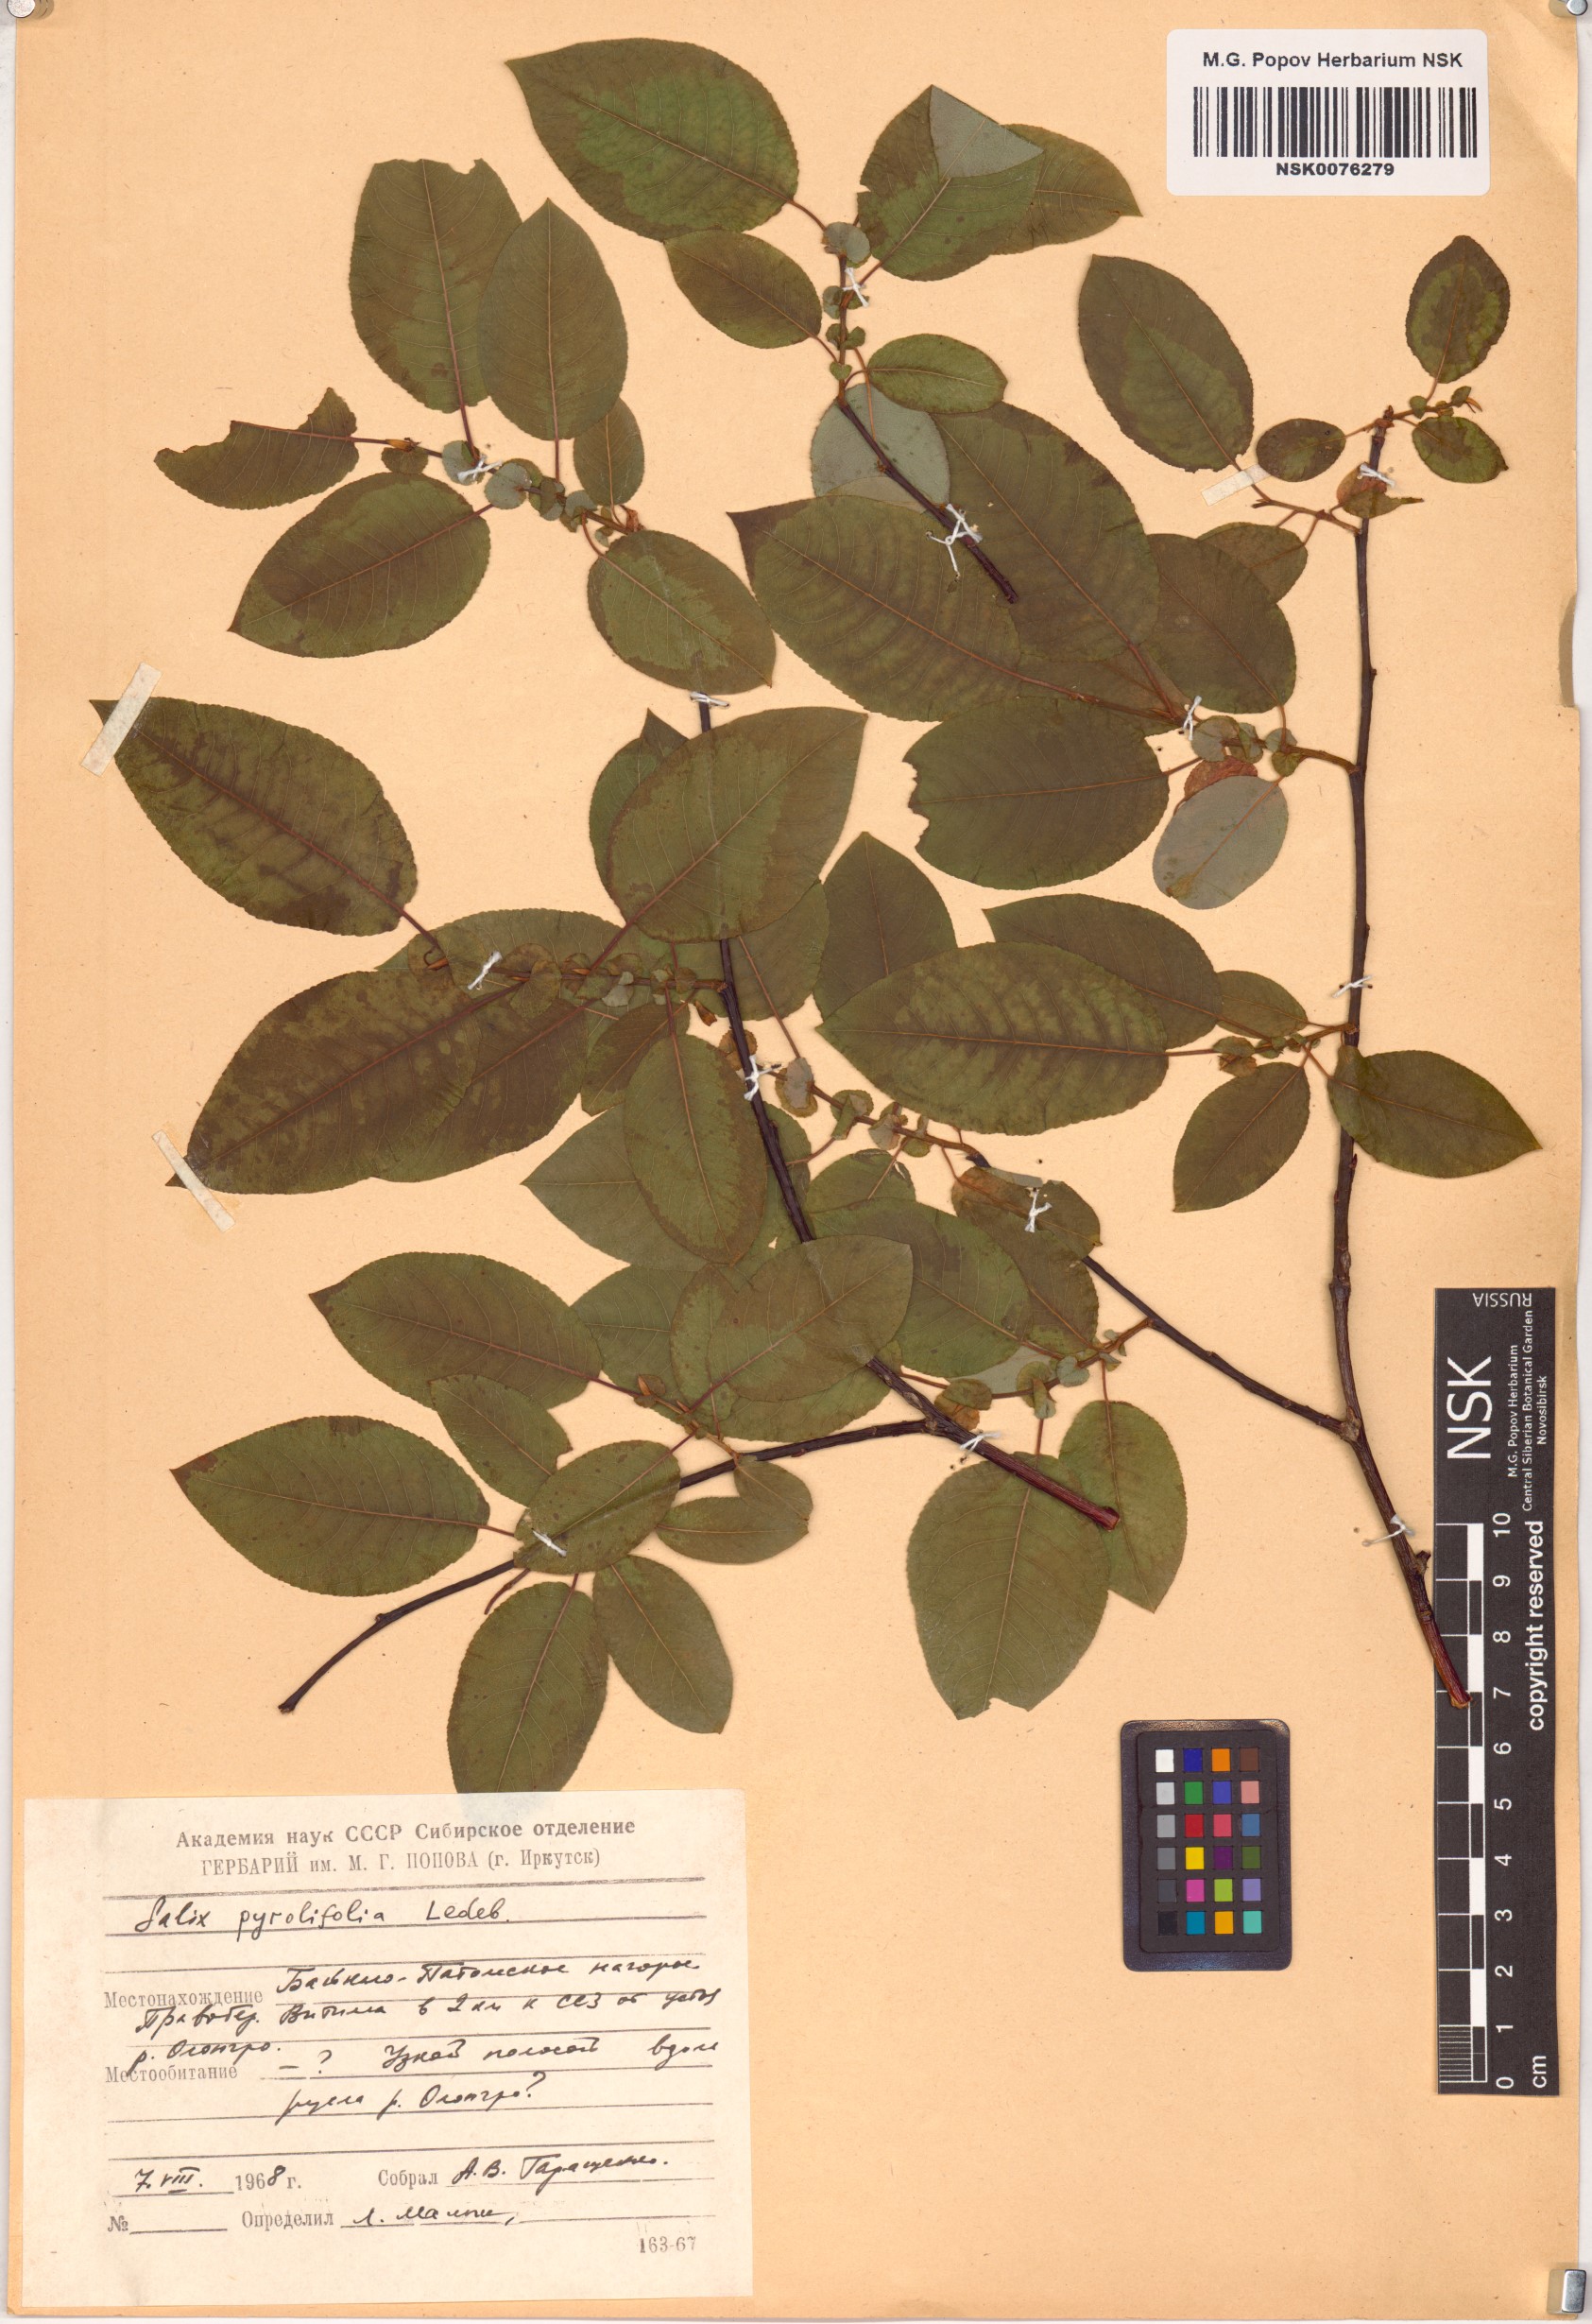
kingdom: Plantae
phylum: Tracheophyta
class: Magnoliopsida
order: Malpighiales
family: Salicaceae
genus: Salix
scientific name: Salix pyrolifolia
